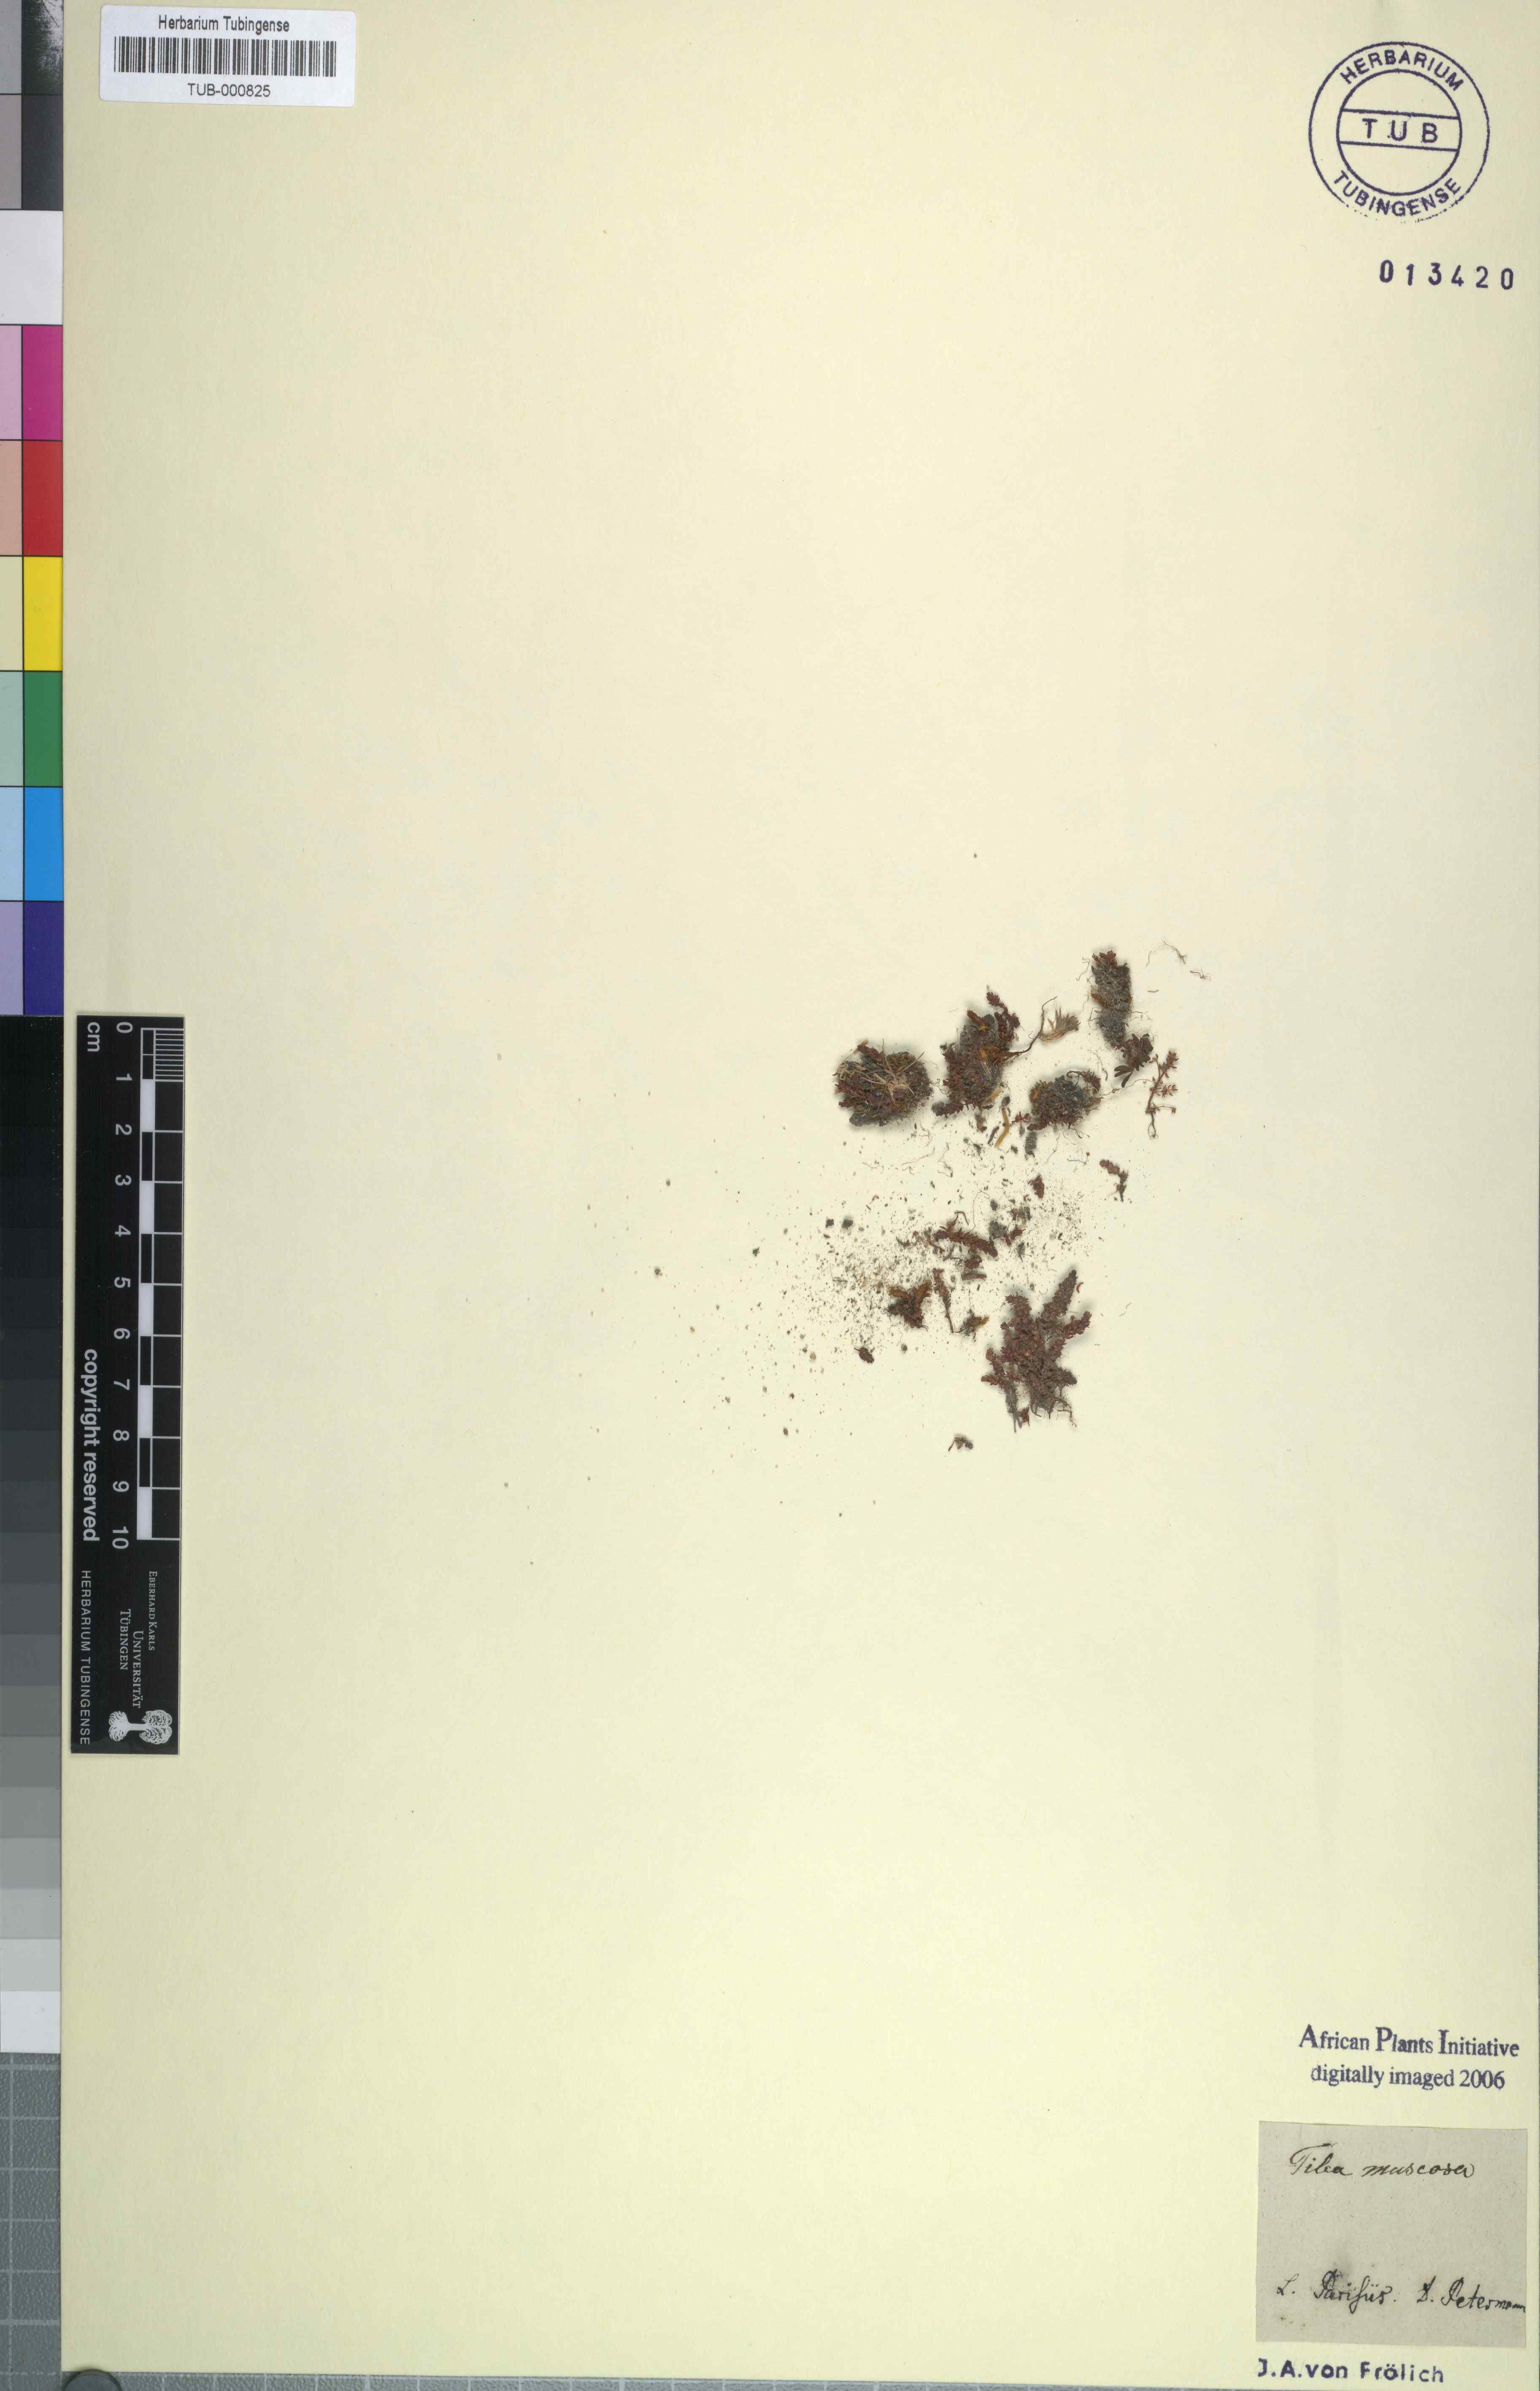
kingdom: Plantae
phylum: Tracheophyta
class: Magnoliopsida
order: Saxifragales
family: Crassulaceae
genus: Crassula
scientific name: Crassula tillaea
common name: Mossy stonecrop
